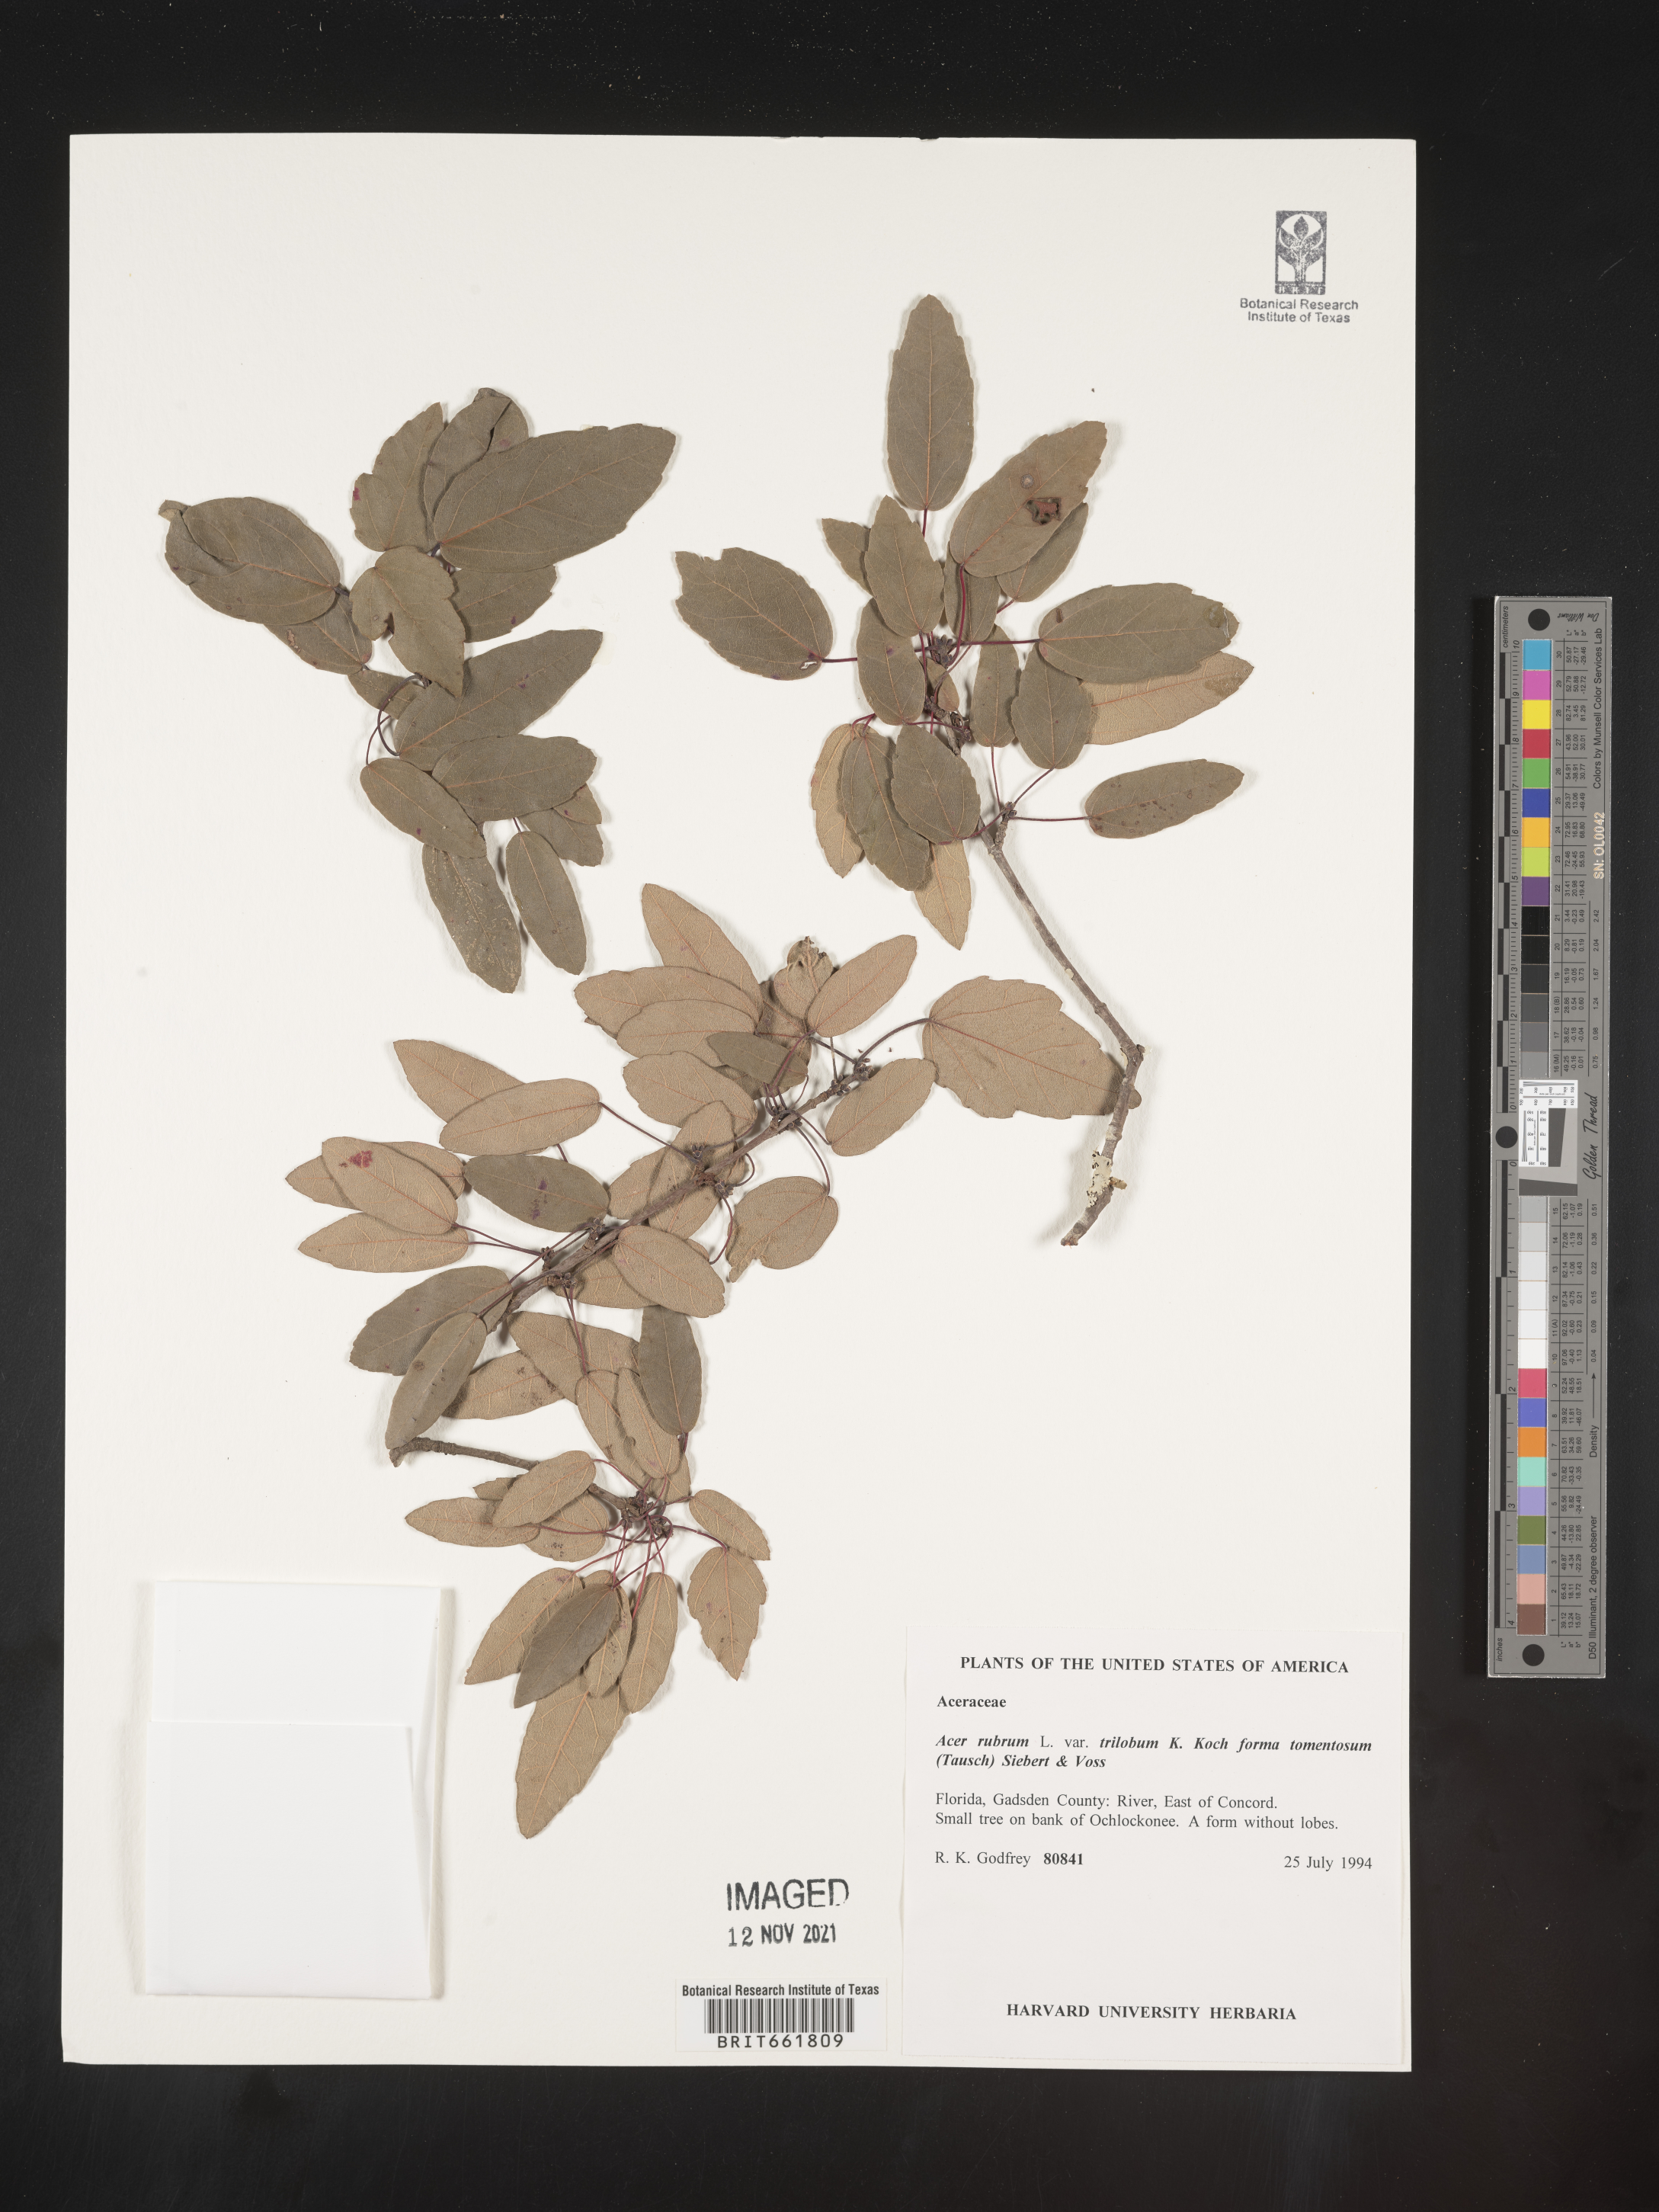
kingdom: Plantae
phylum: Tracheophyta
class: Magnoliopsida
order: Sapindales
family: Sapindaceae
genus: Acer
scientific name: Acer rubrum
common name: Red maple
